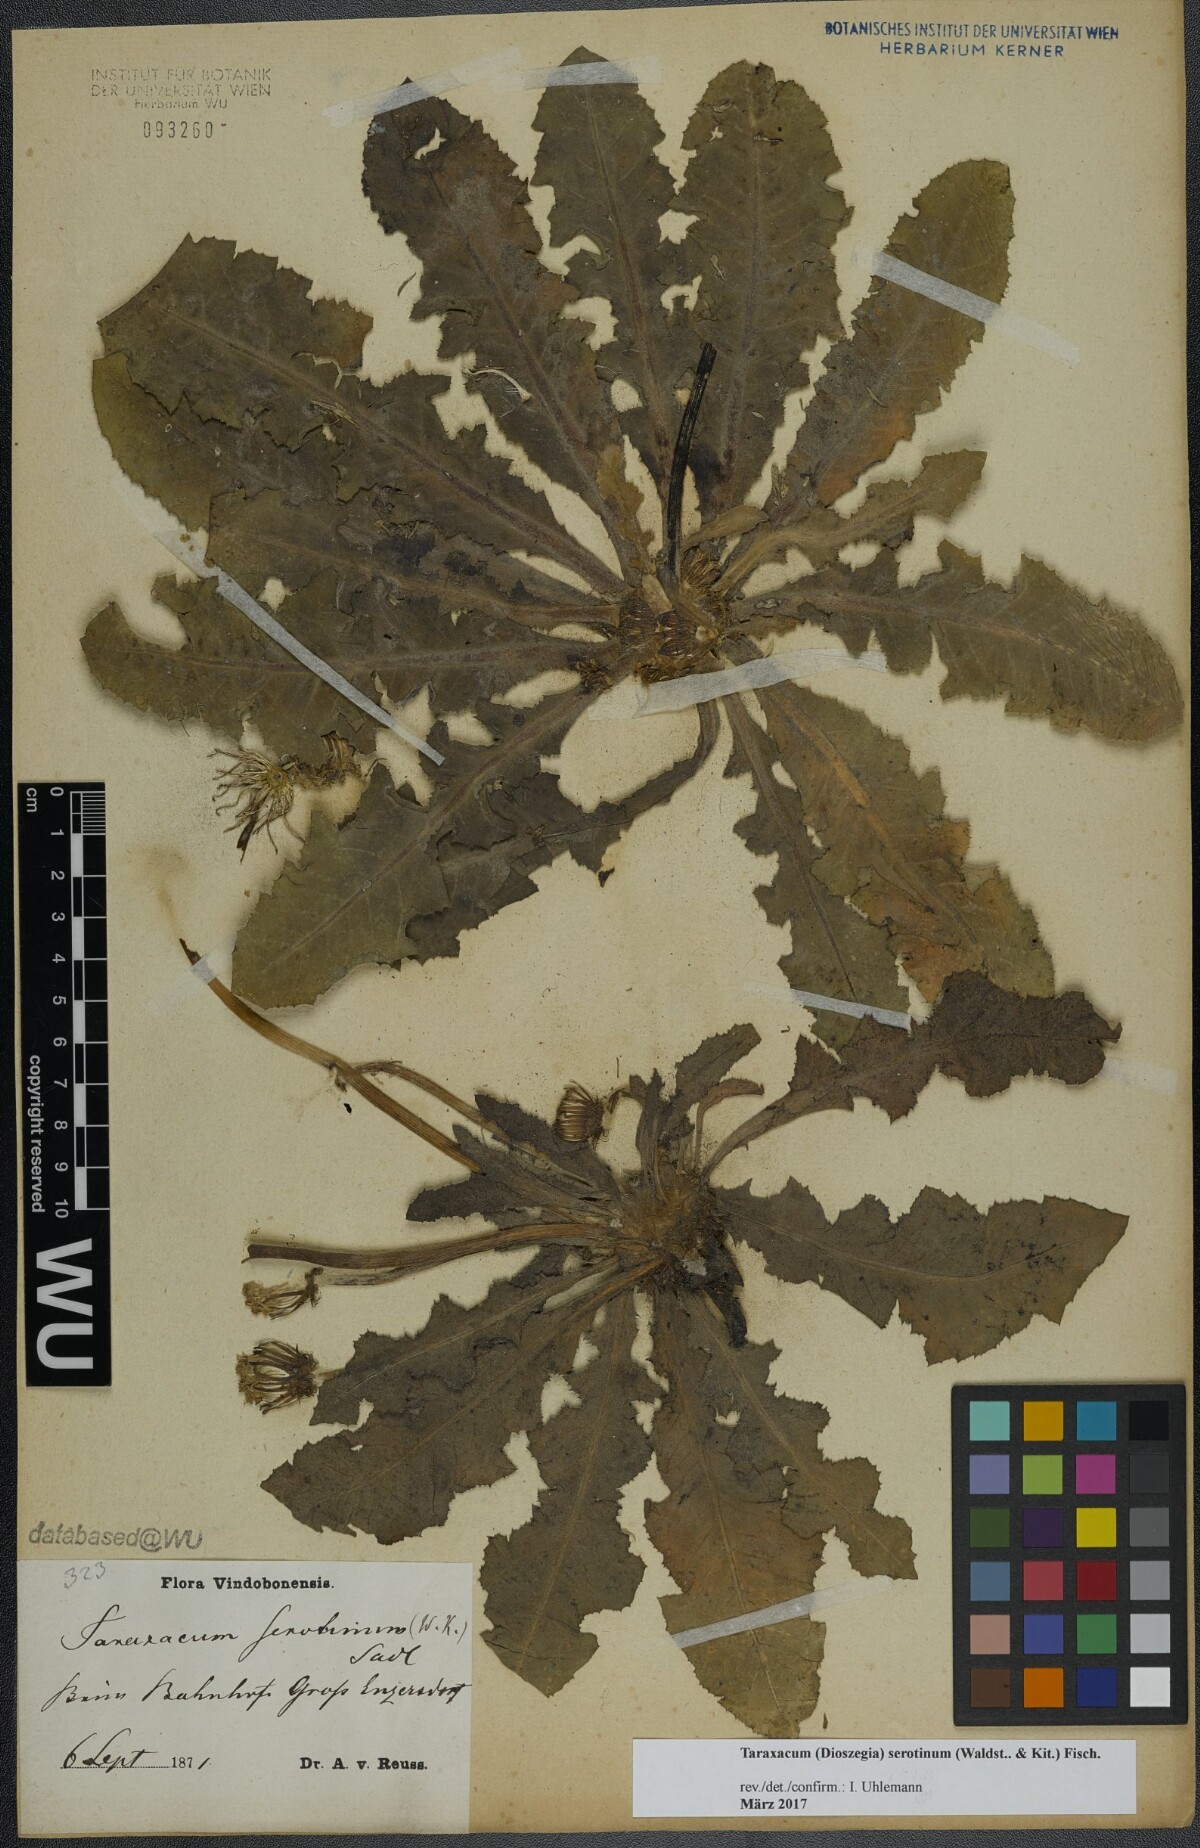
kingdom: Plantae
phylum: Tracheophyta
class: Magnoliopsida
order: Asterales
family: Asteraceae
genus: Taraxacum
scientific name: Taraxacum serotinum
